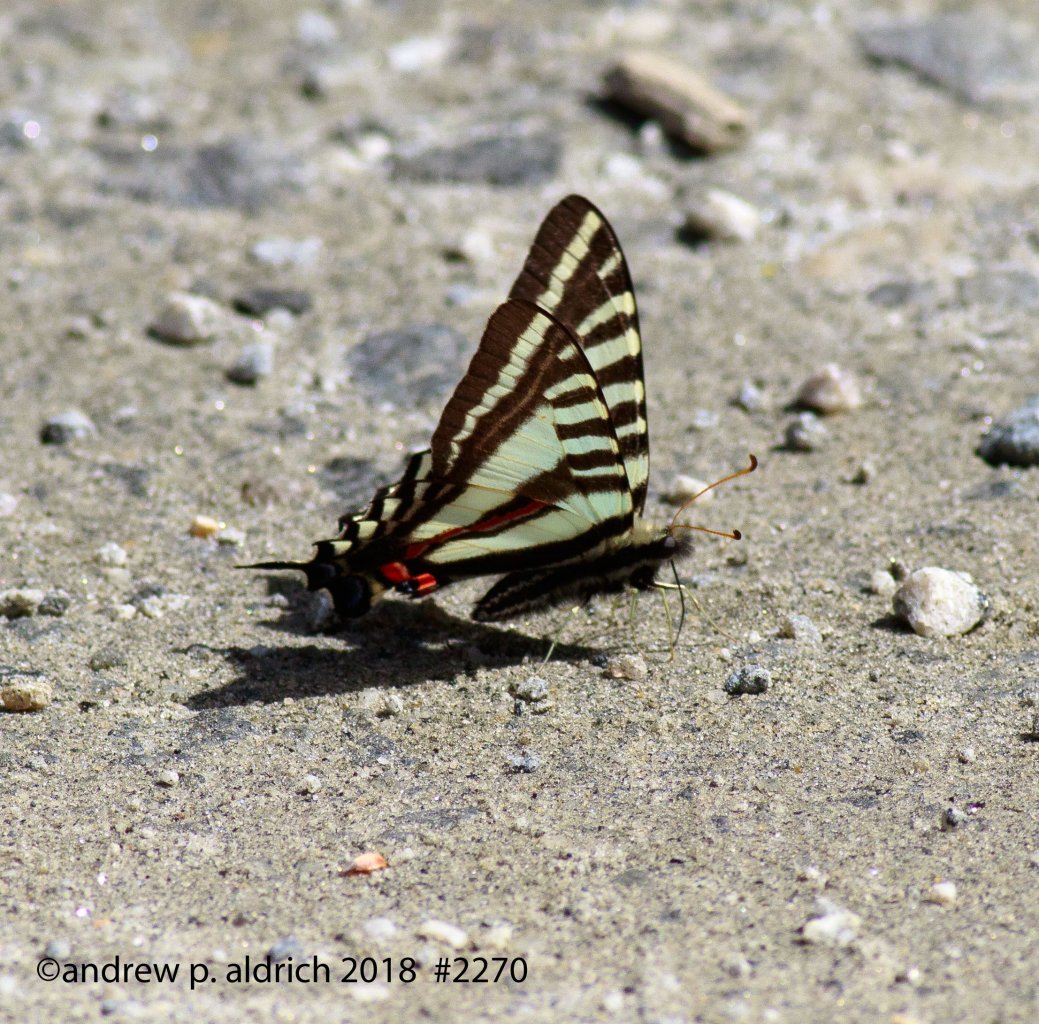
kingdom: Animalia
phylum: Arthropoda
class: Insecta
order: Lepidoptera
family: Papilionidae
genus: Protographium
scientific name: Protographium marcellus
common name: Zebra Swallowtail
